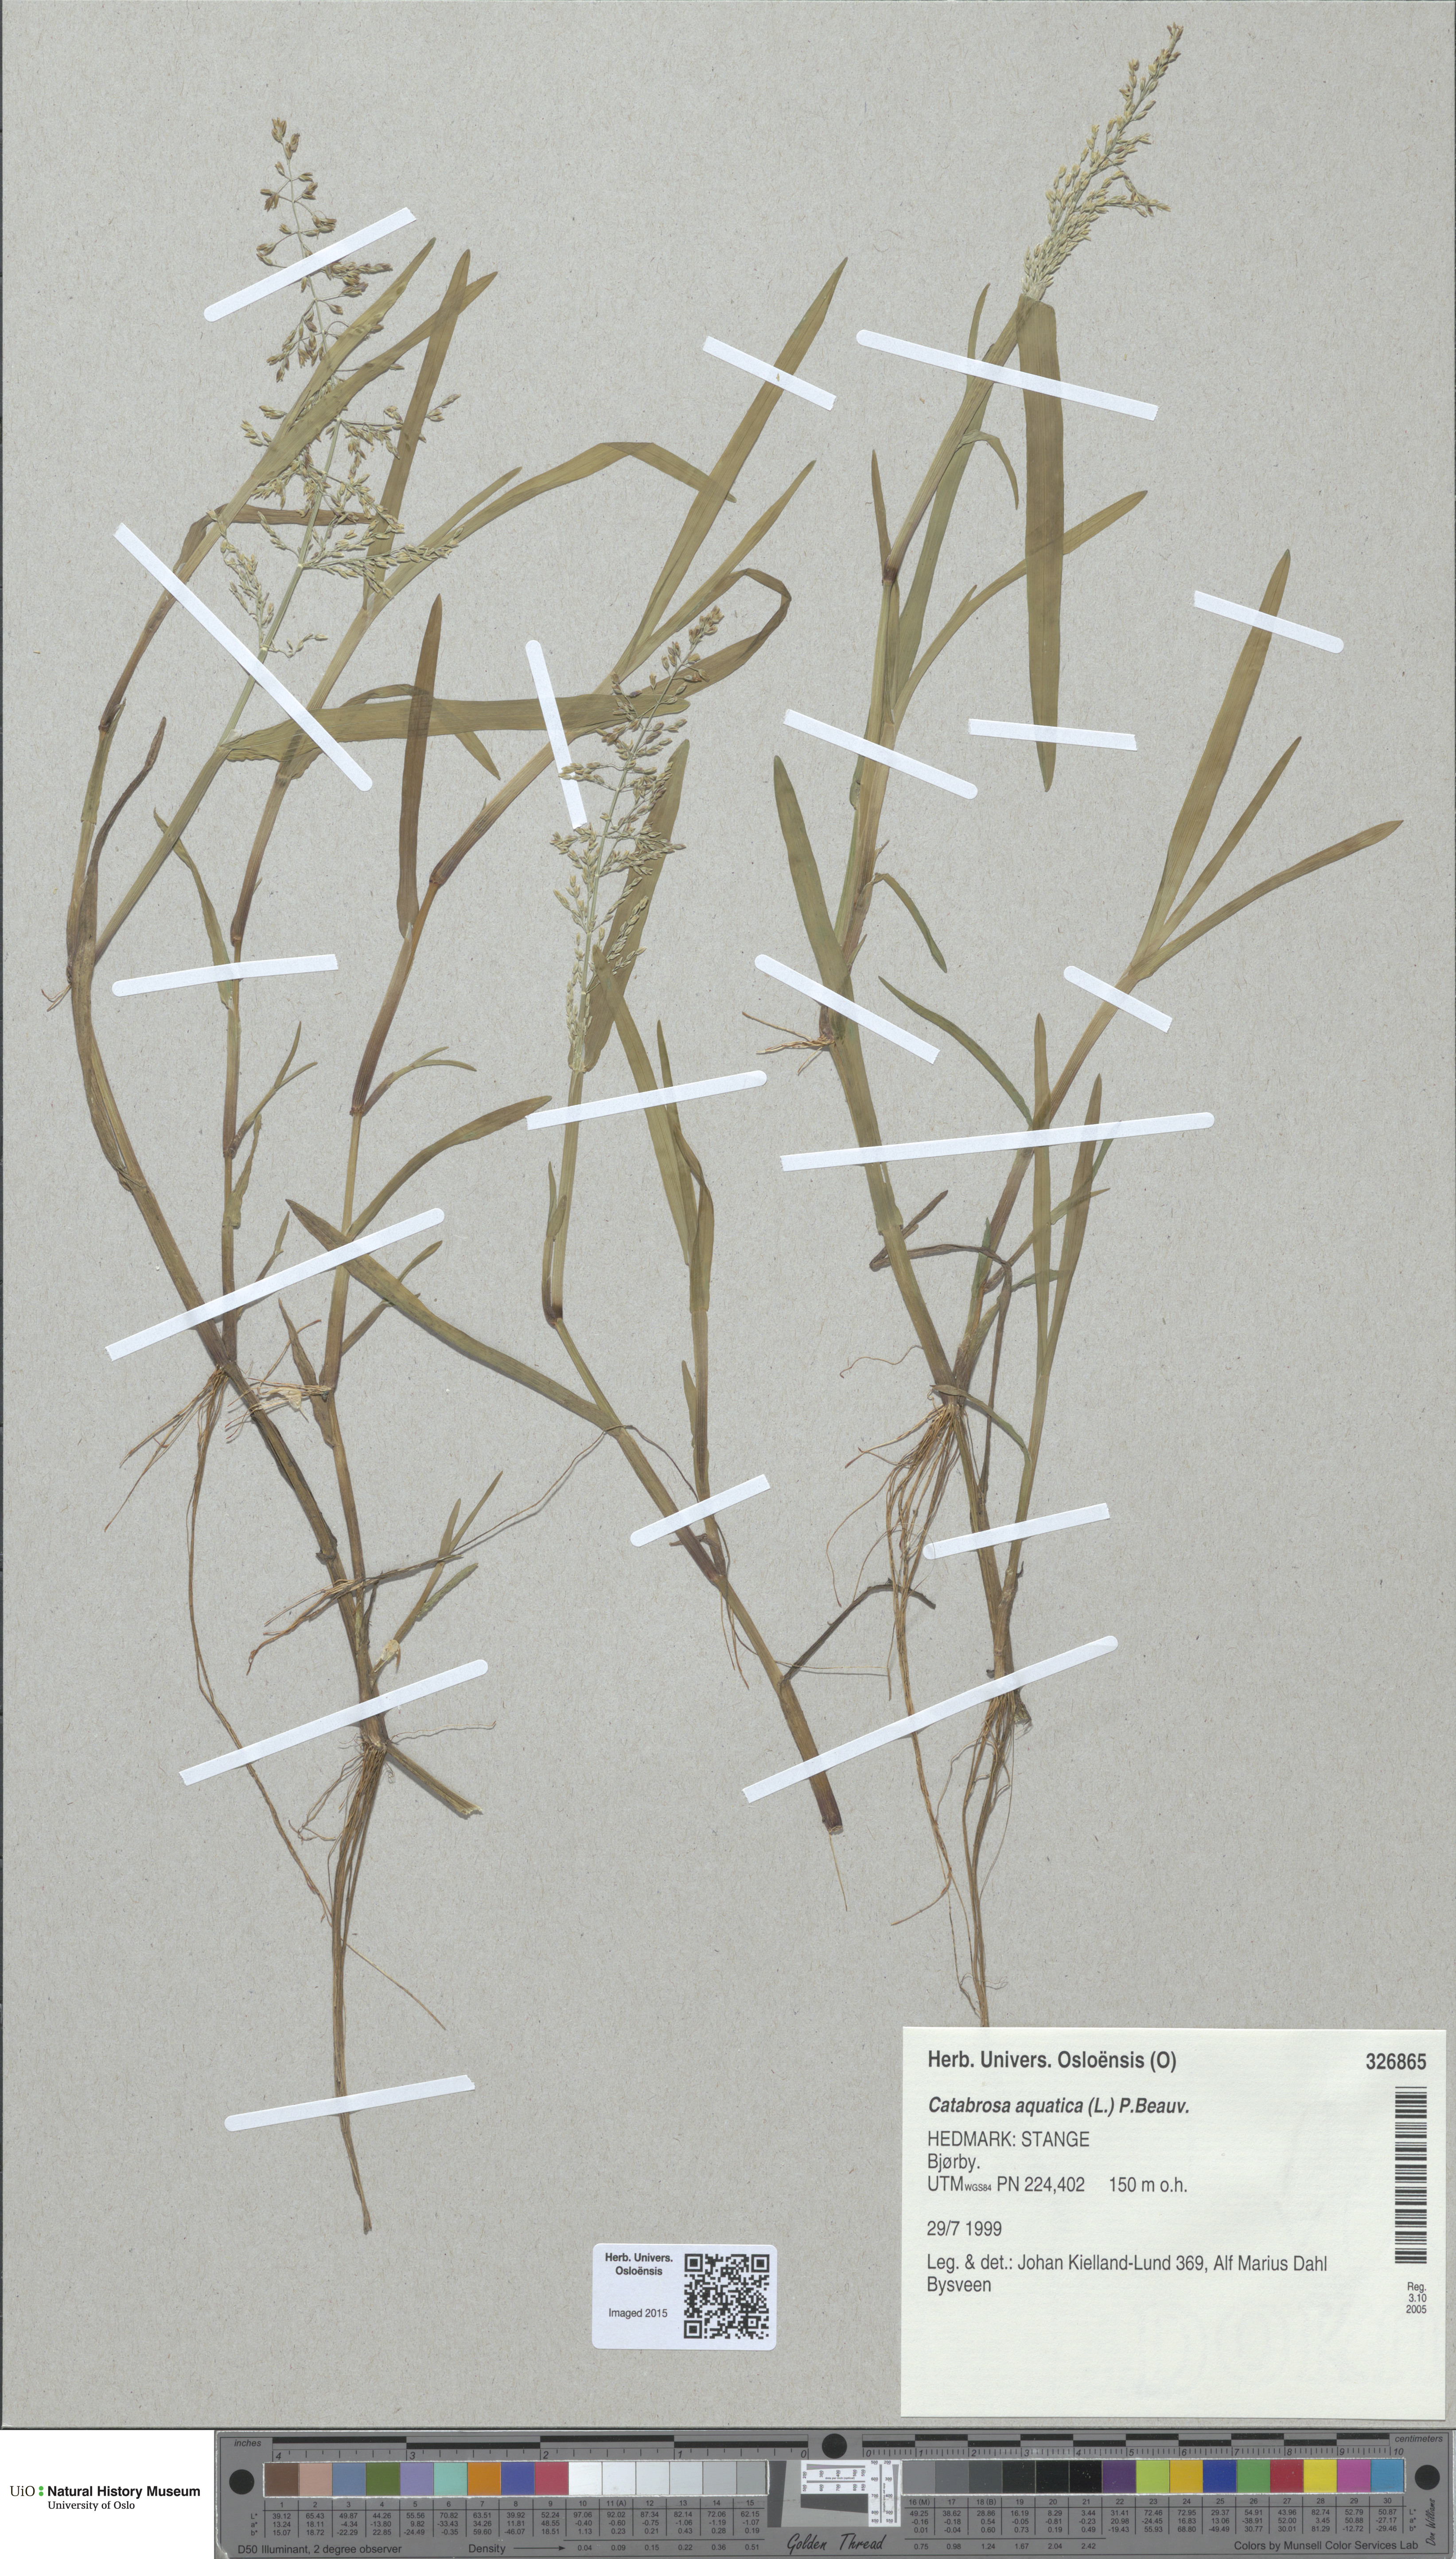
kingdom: Plantae
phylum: Tracheophyta
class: Liliopsida
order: Poales
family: Poaceae
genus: Catabrosa
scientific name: Catabrosa aquatica
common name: Whorl-grass
